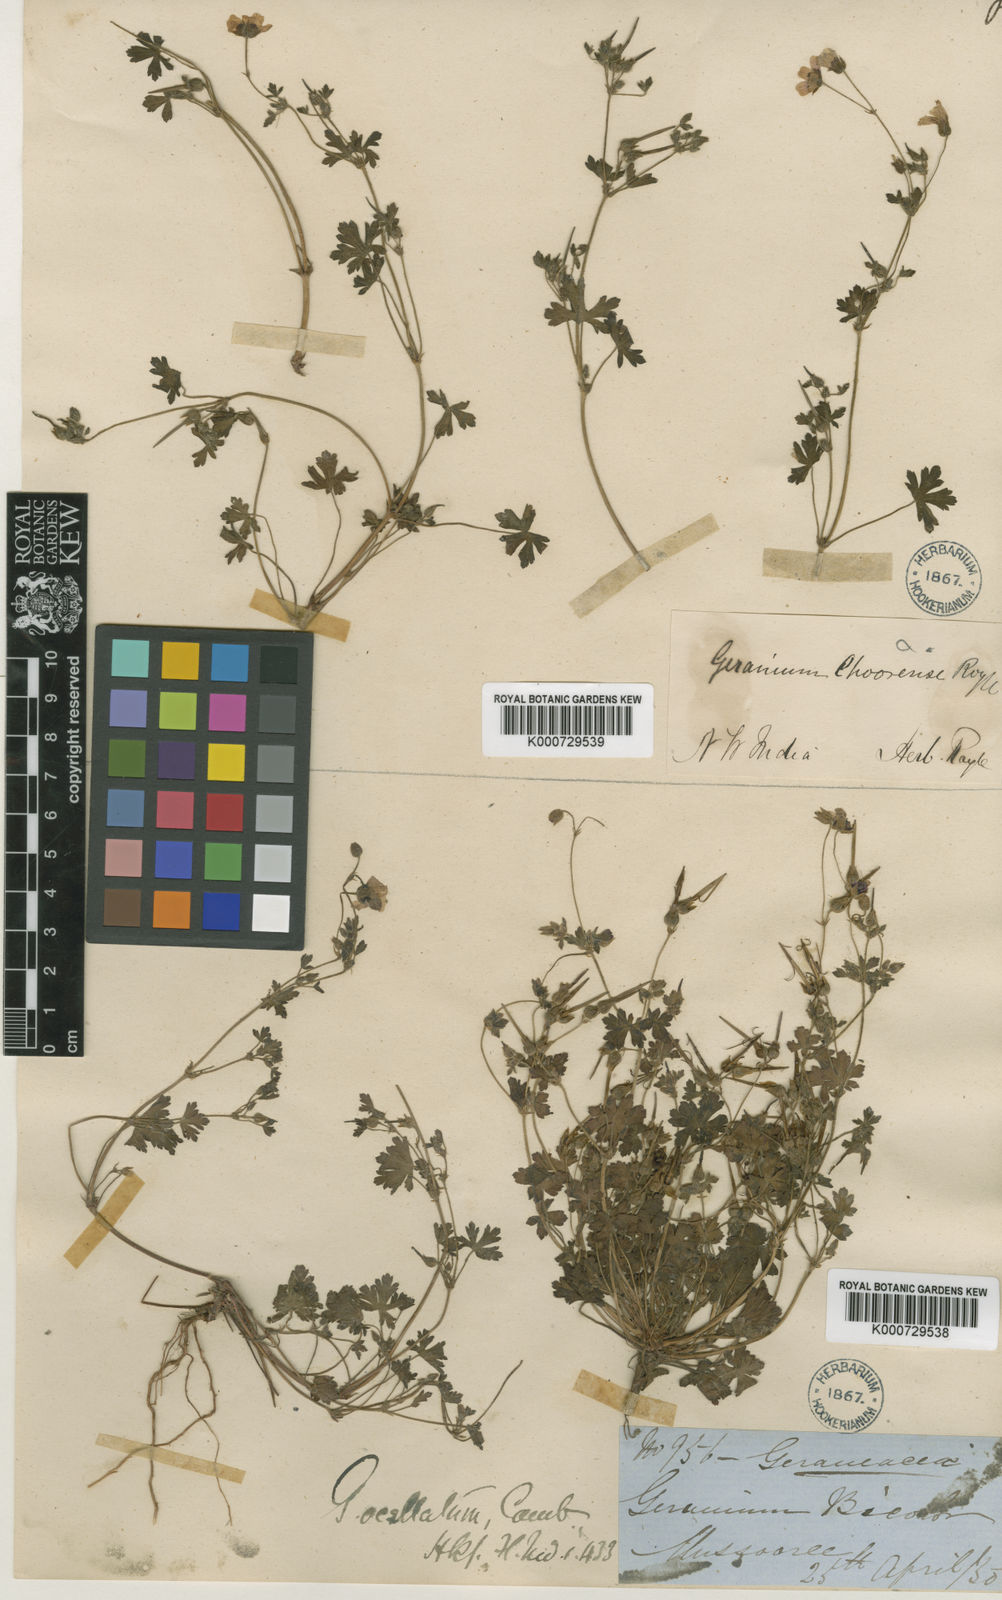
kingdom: Plantae
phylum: Tracheophyta
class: Magnoliopsida
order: Geraniales
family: Geraniaceae
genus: Geranium
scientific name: Geranium ocellatum
